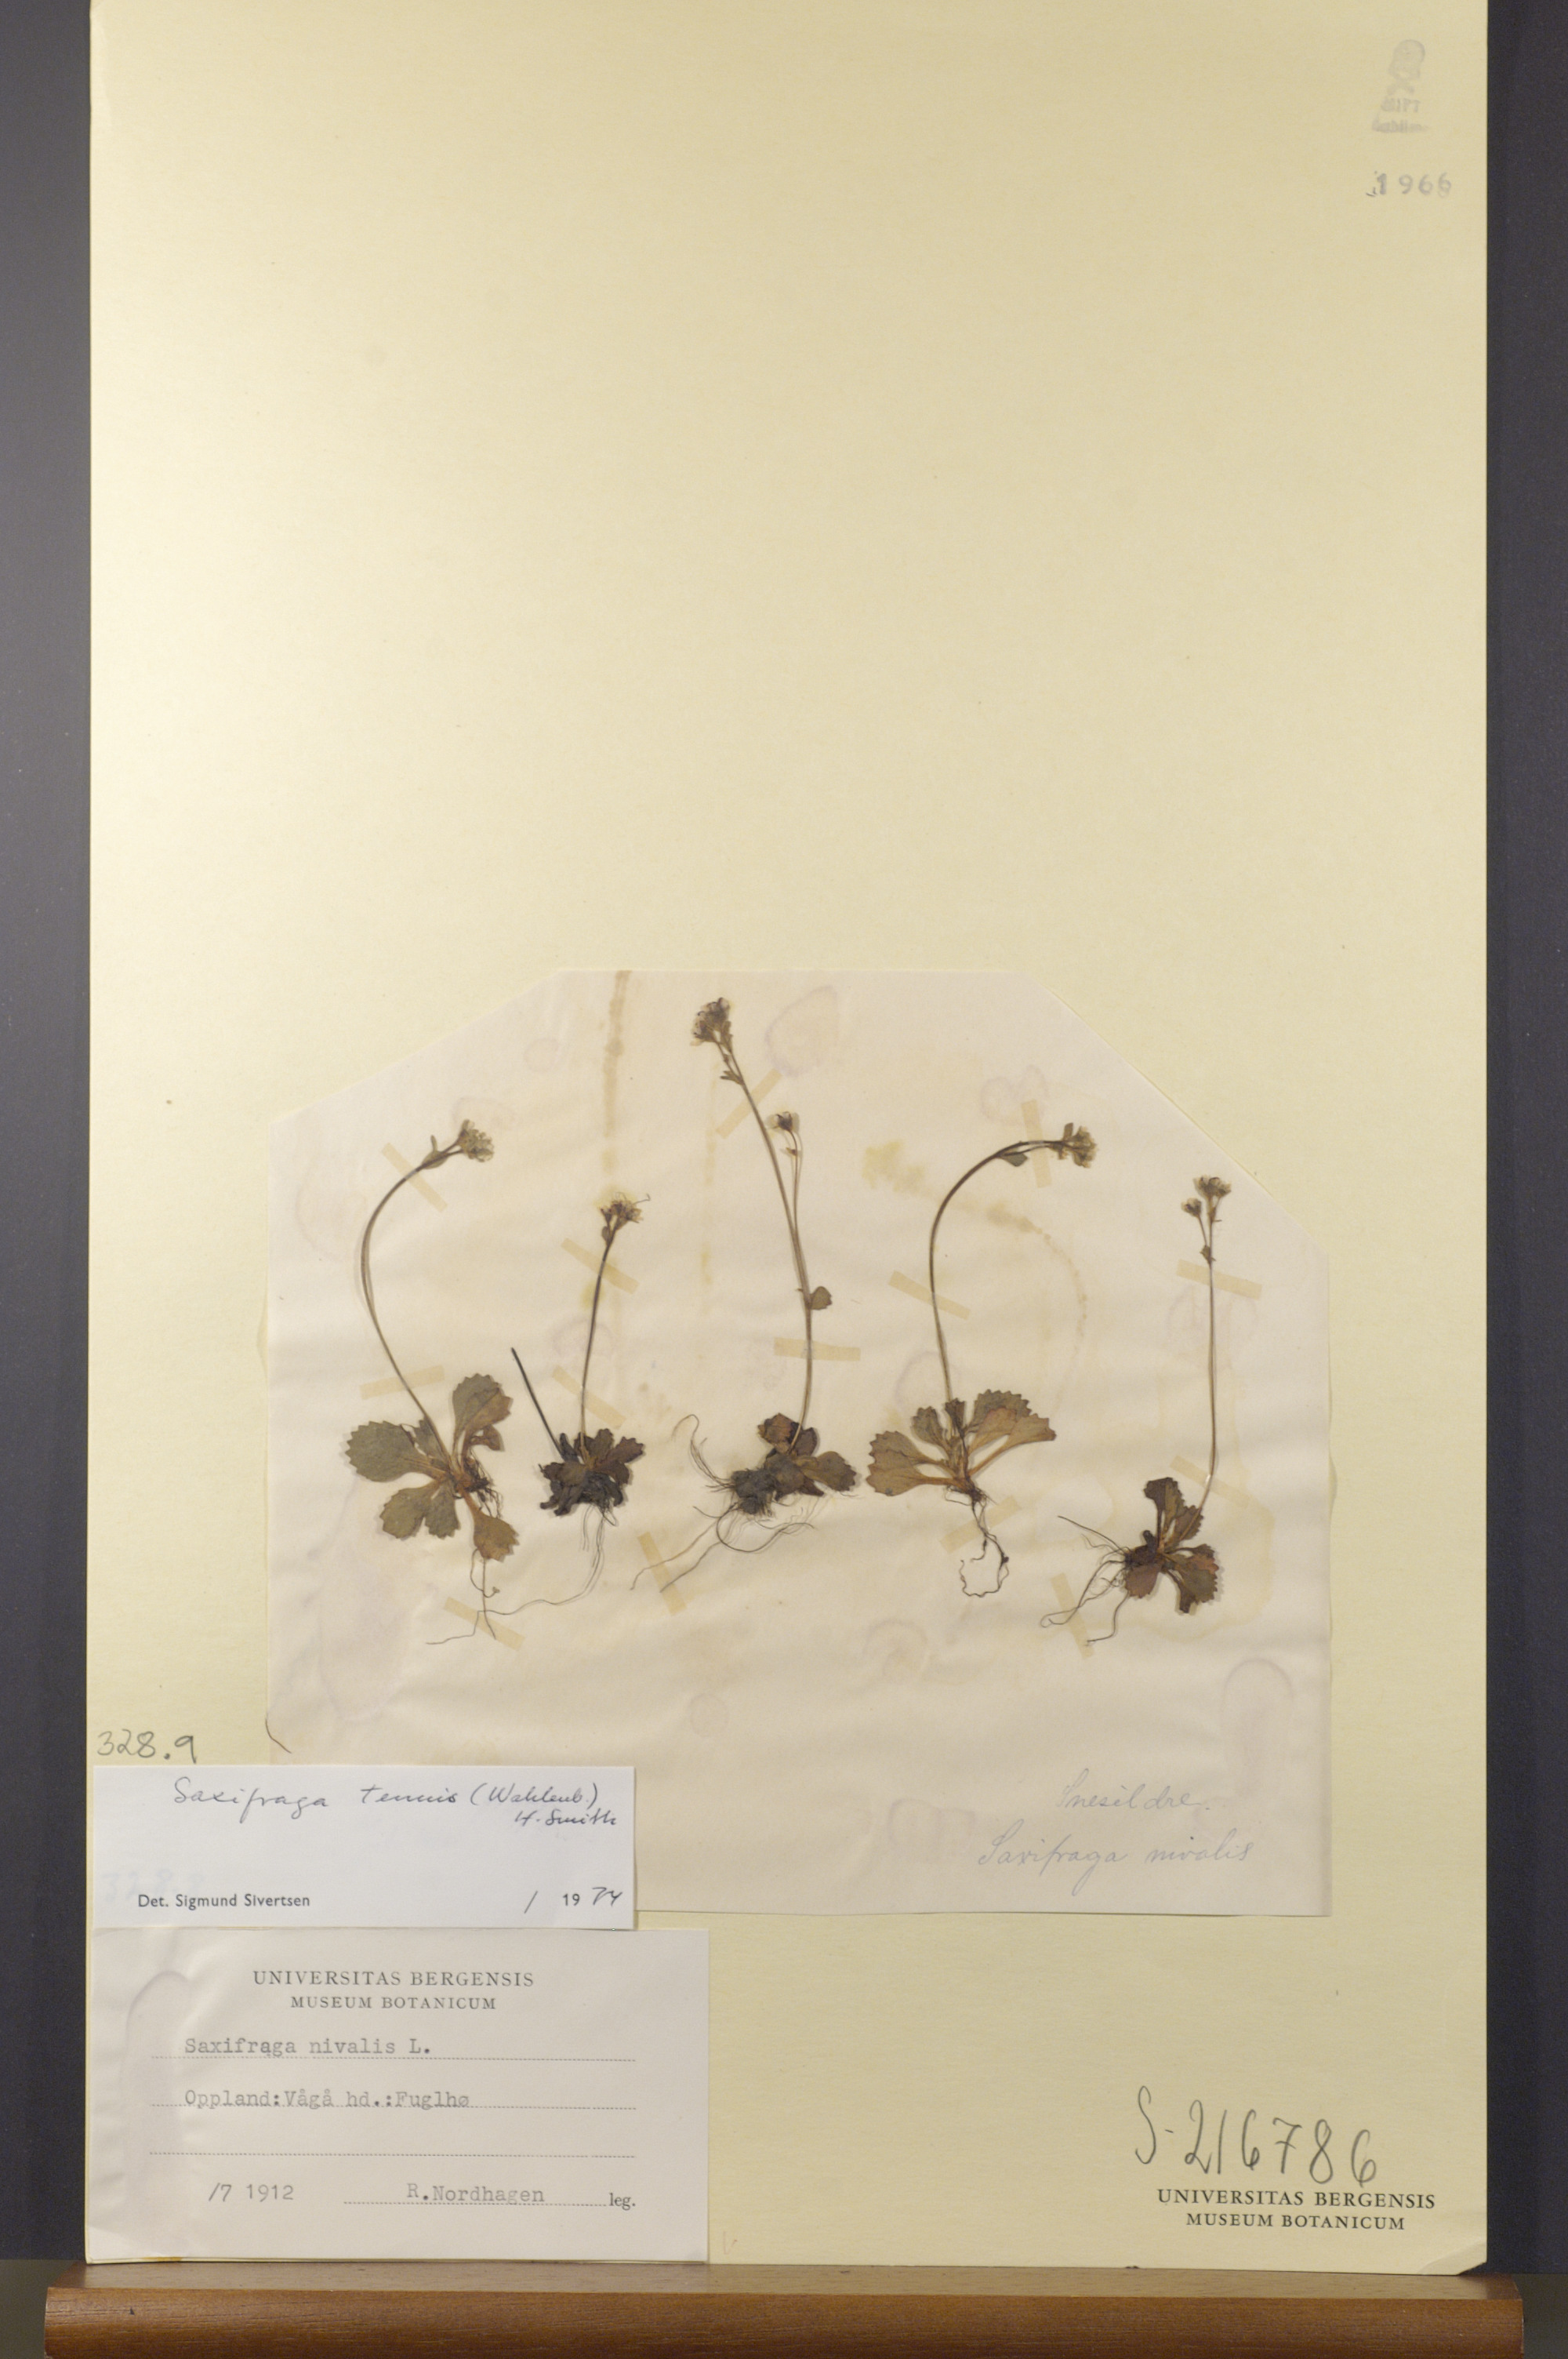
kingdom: Plantae
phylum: Tracheophyta
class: Magnoliopsida
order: Saxifragales
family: Saxifragaceae
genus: Micranthes
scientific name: Micranthes tenuis
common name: Ottertail pass saxifrage
